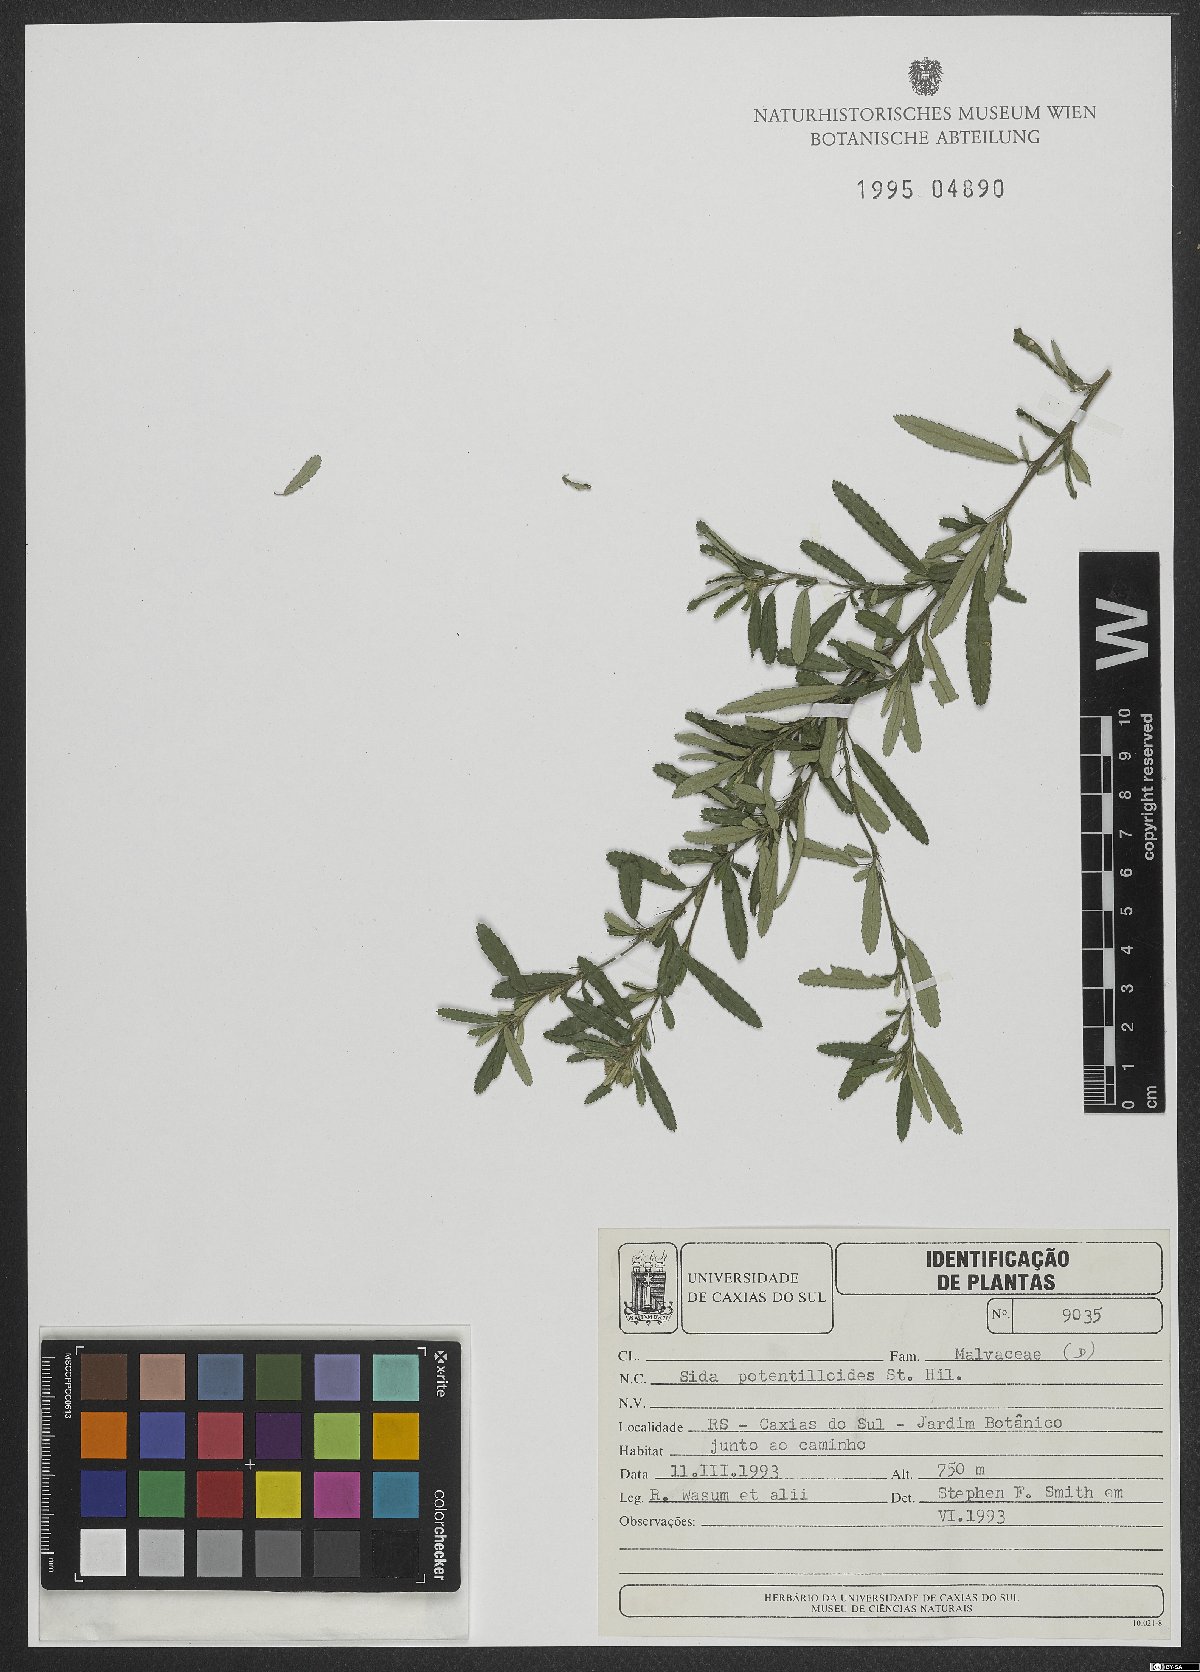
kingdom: Plantae
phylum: Tracheophyta
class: Magnoliopsida
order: Malvales
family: Malvaceae
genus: Sida
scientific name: Sida potentilloides
